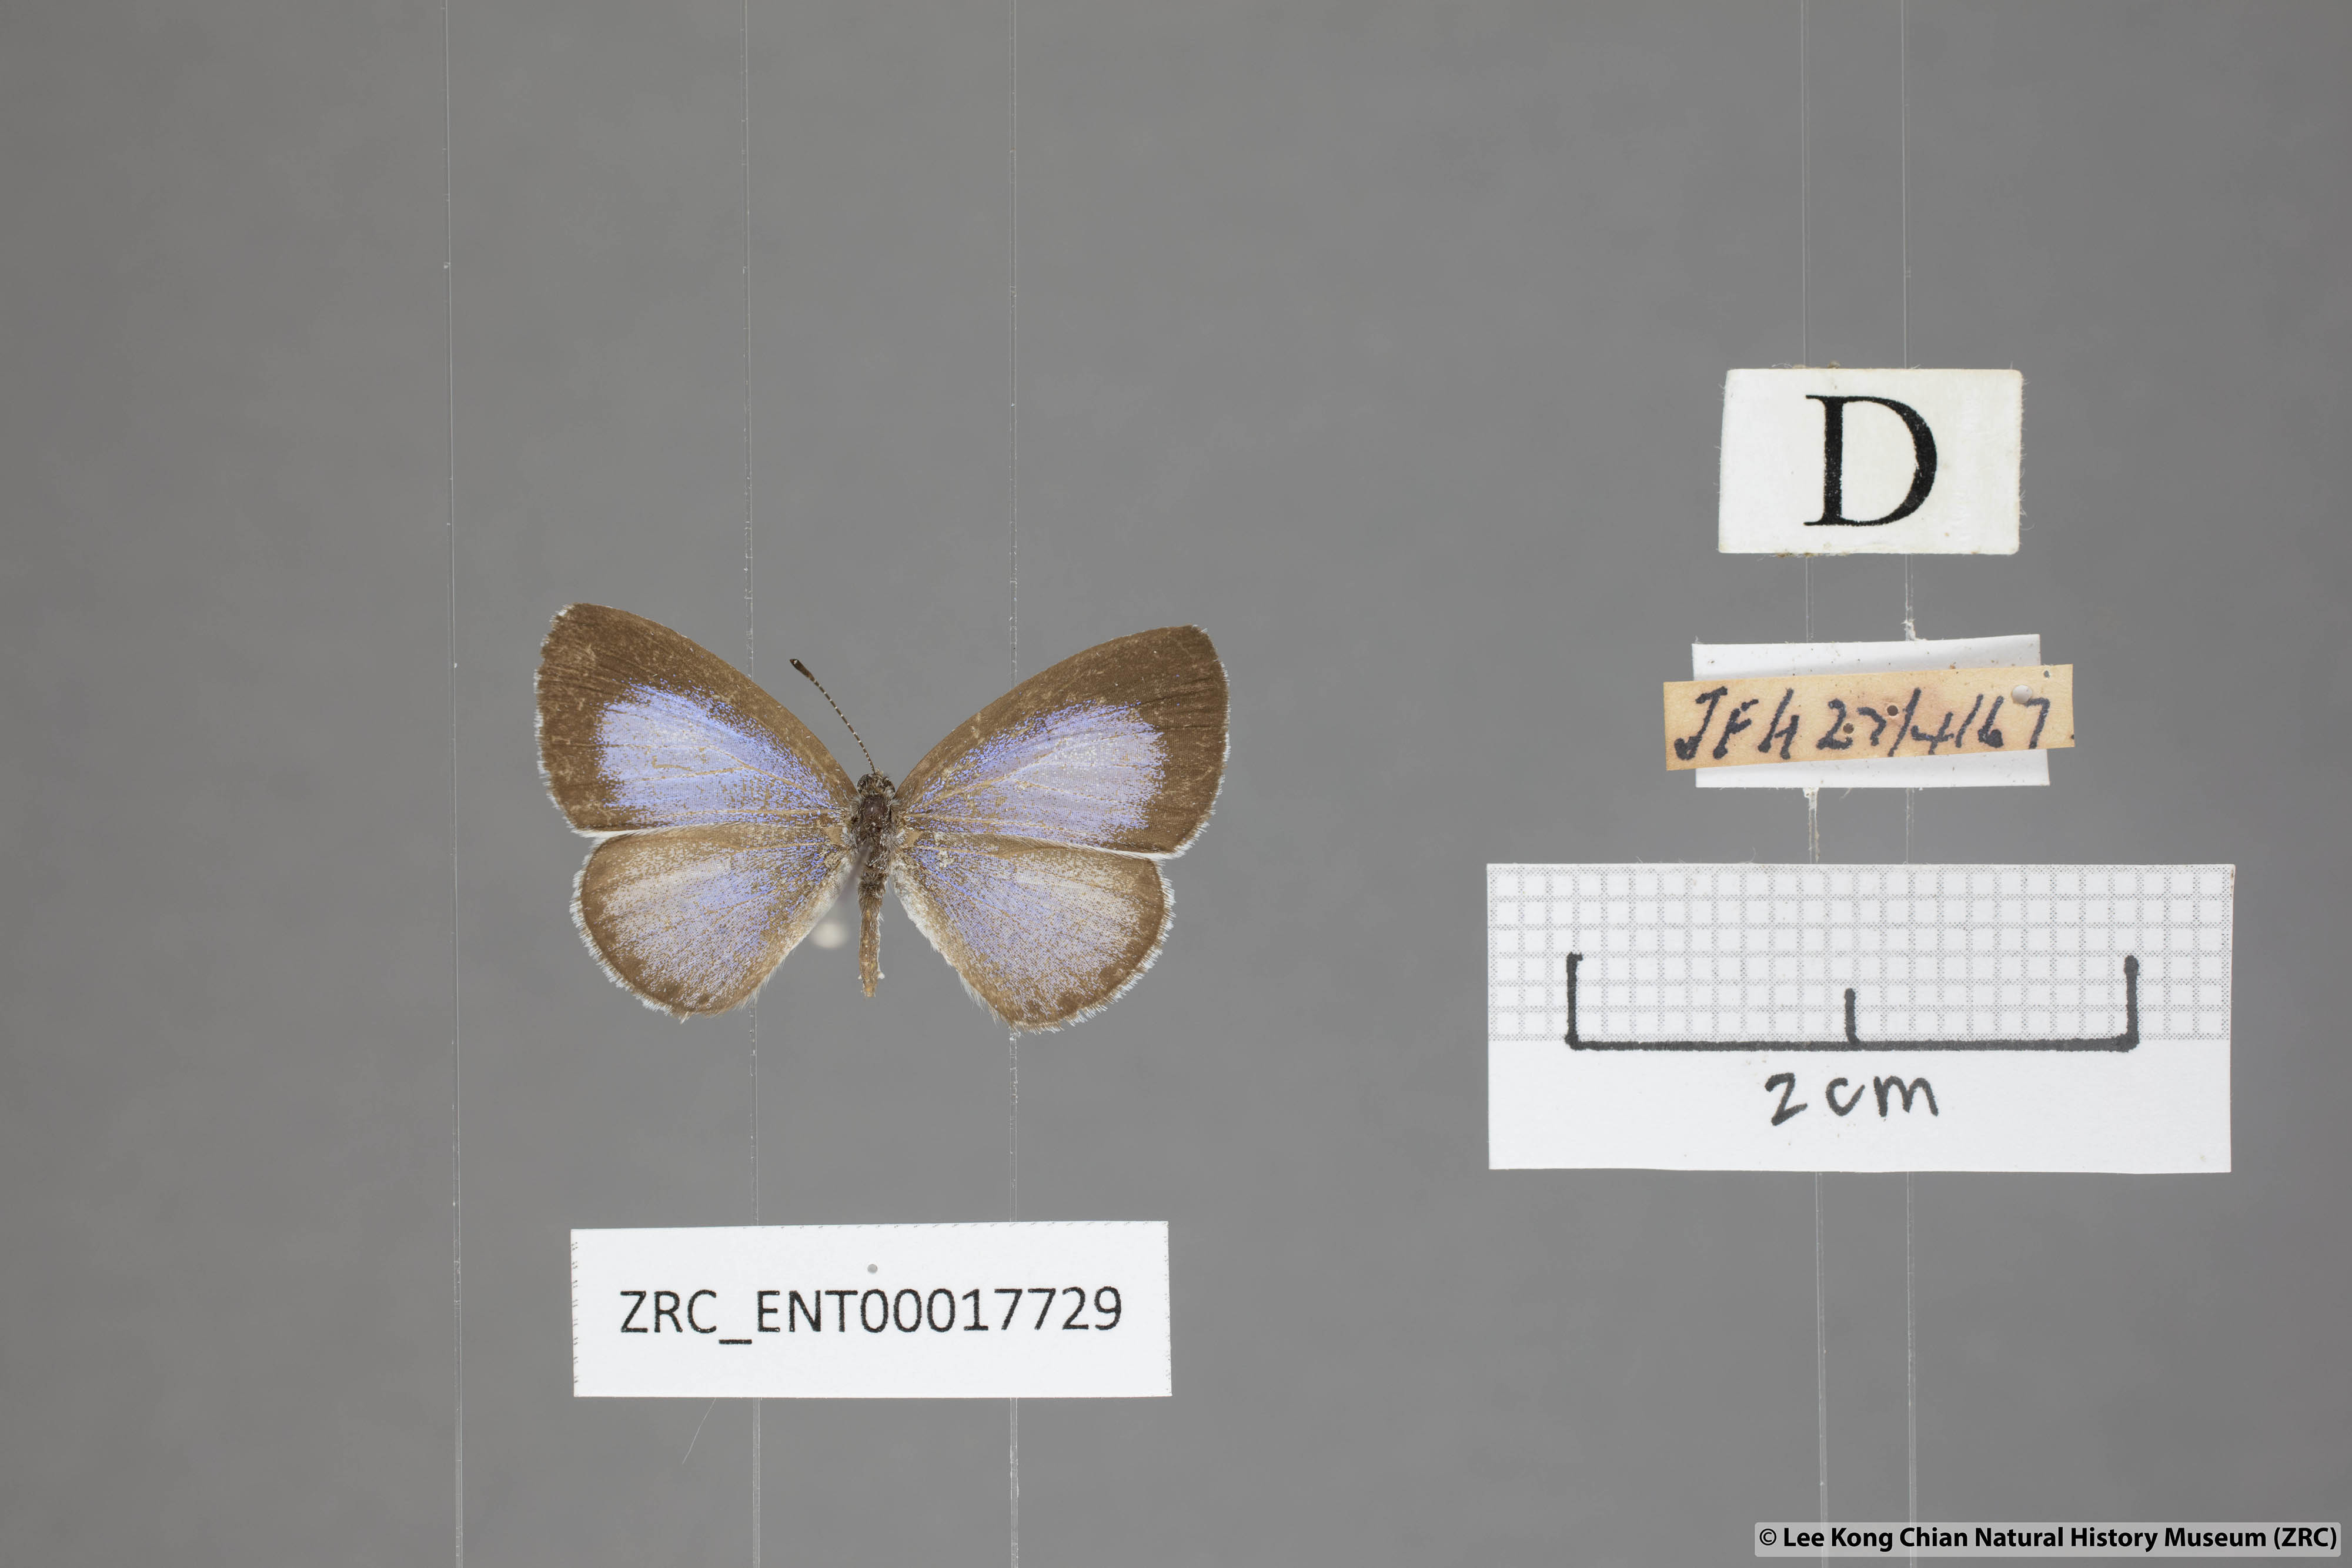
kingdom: Animalia
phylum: Arthropoda
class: Insecta
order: Lepidoptera
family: Lycaenidae
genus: Udara
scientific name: Udara
